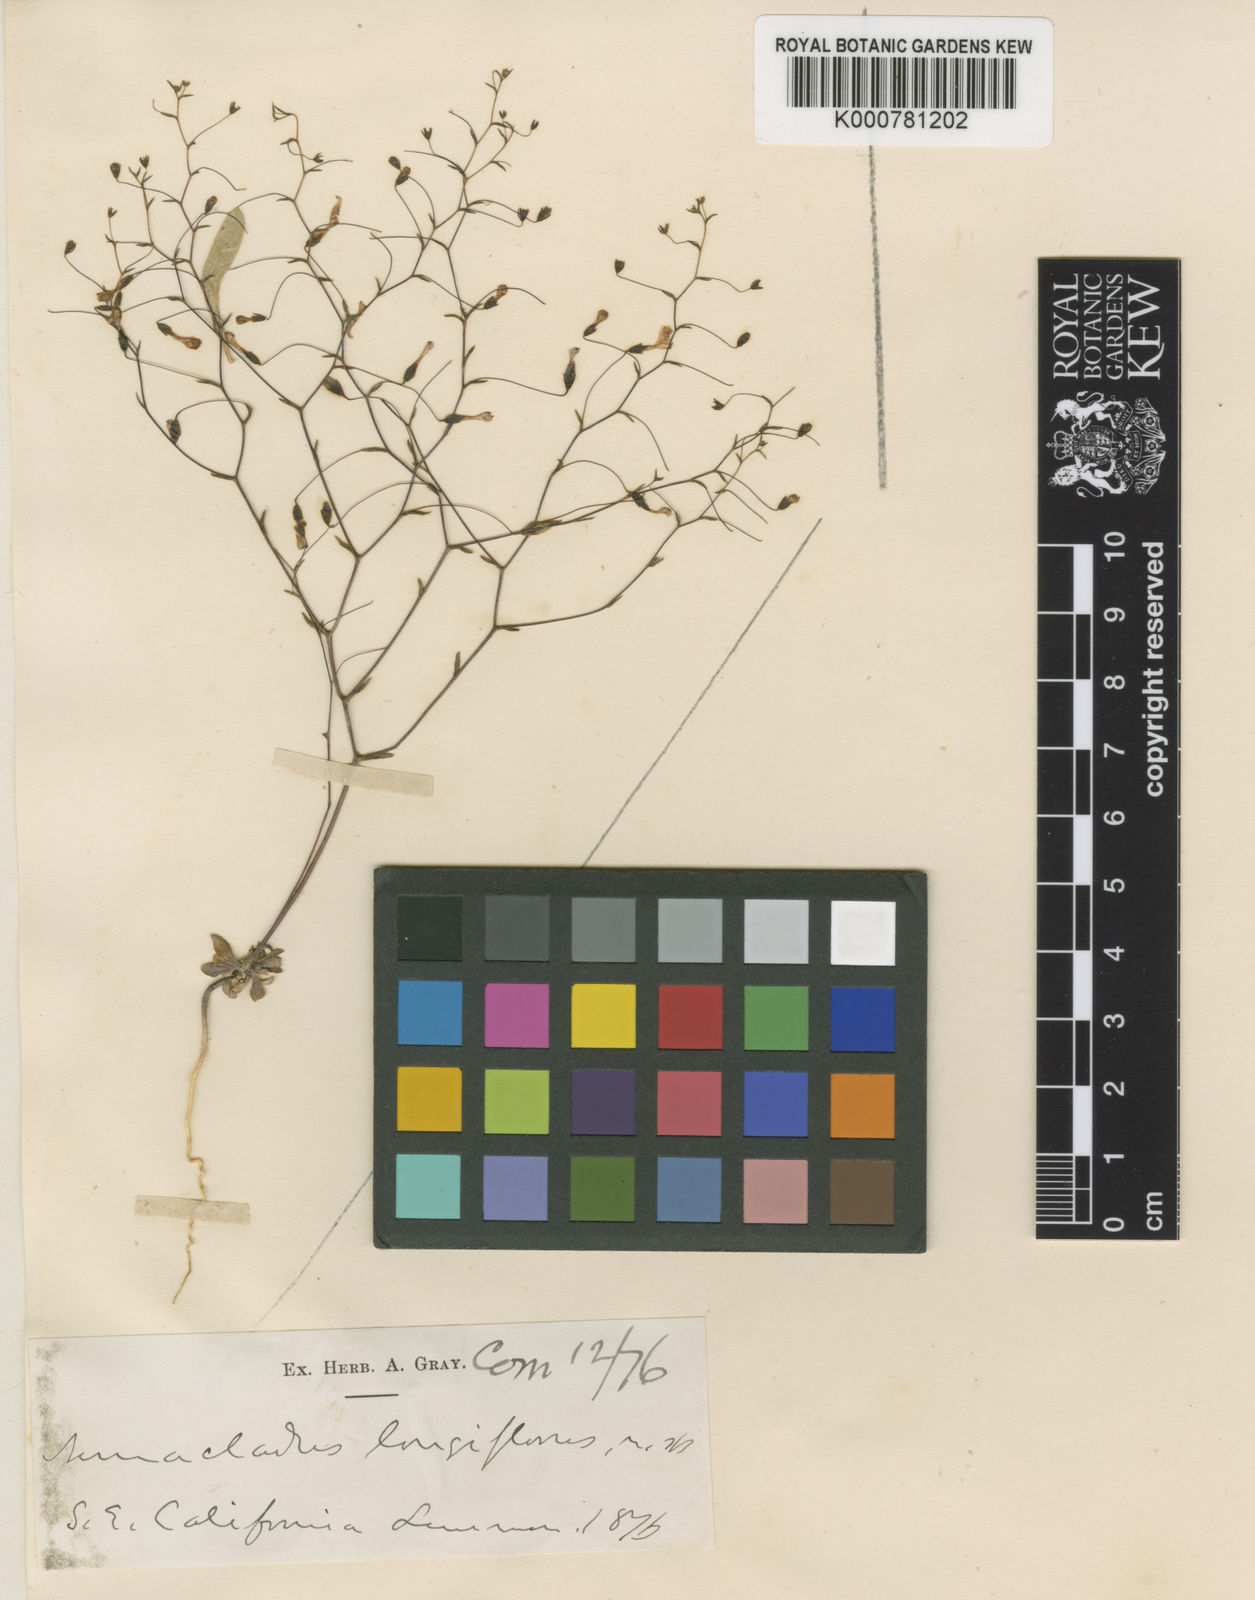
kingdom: Plantae
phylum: Tracheophyta
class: Magnoliopsida
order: Asterales
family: Campanulaceae
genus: Nemacladus
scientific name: Nemacladus longiflorus
